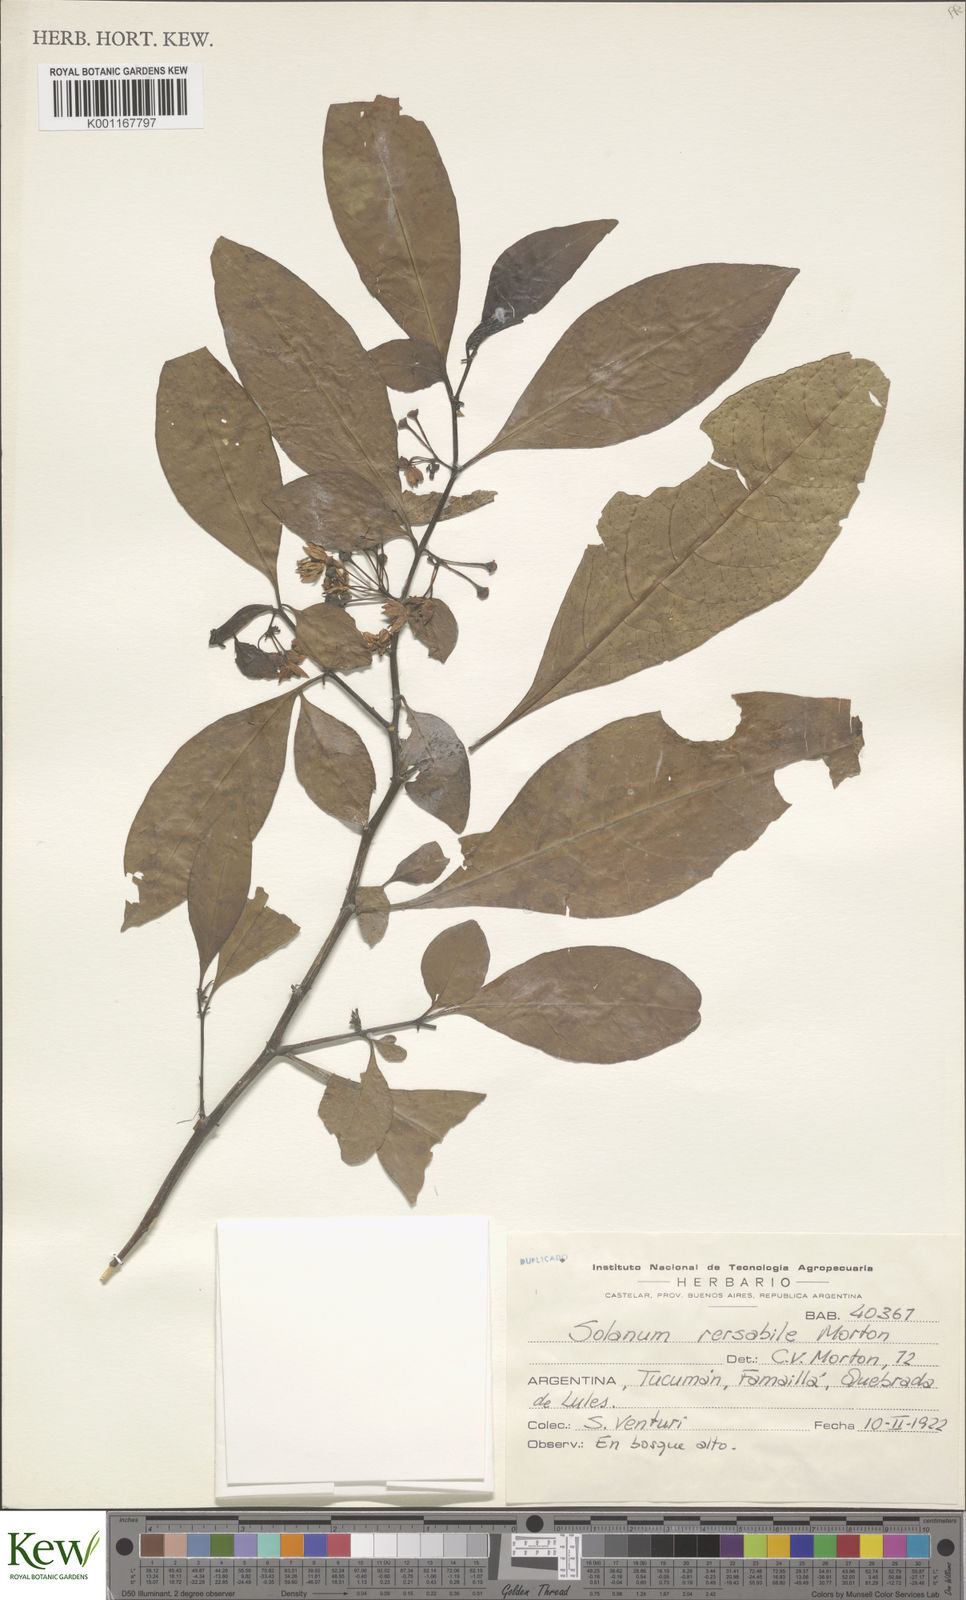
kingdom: Plantae
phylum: Tracheophyta
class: Magnoliopsida
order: Solanales
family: Solanaceae
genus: Solanum
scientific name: Solanum symmetricum
